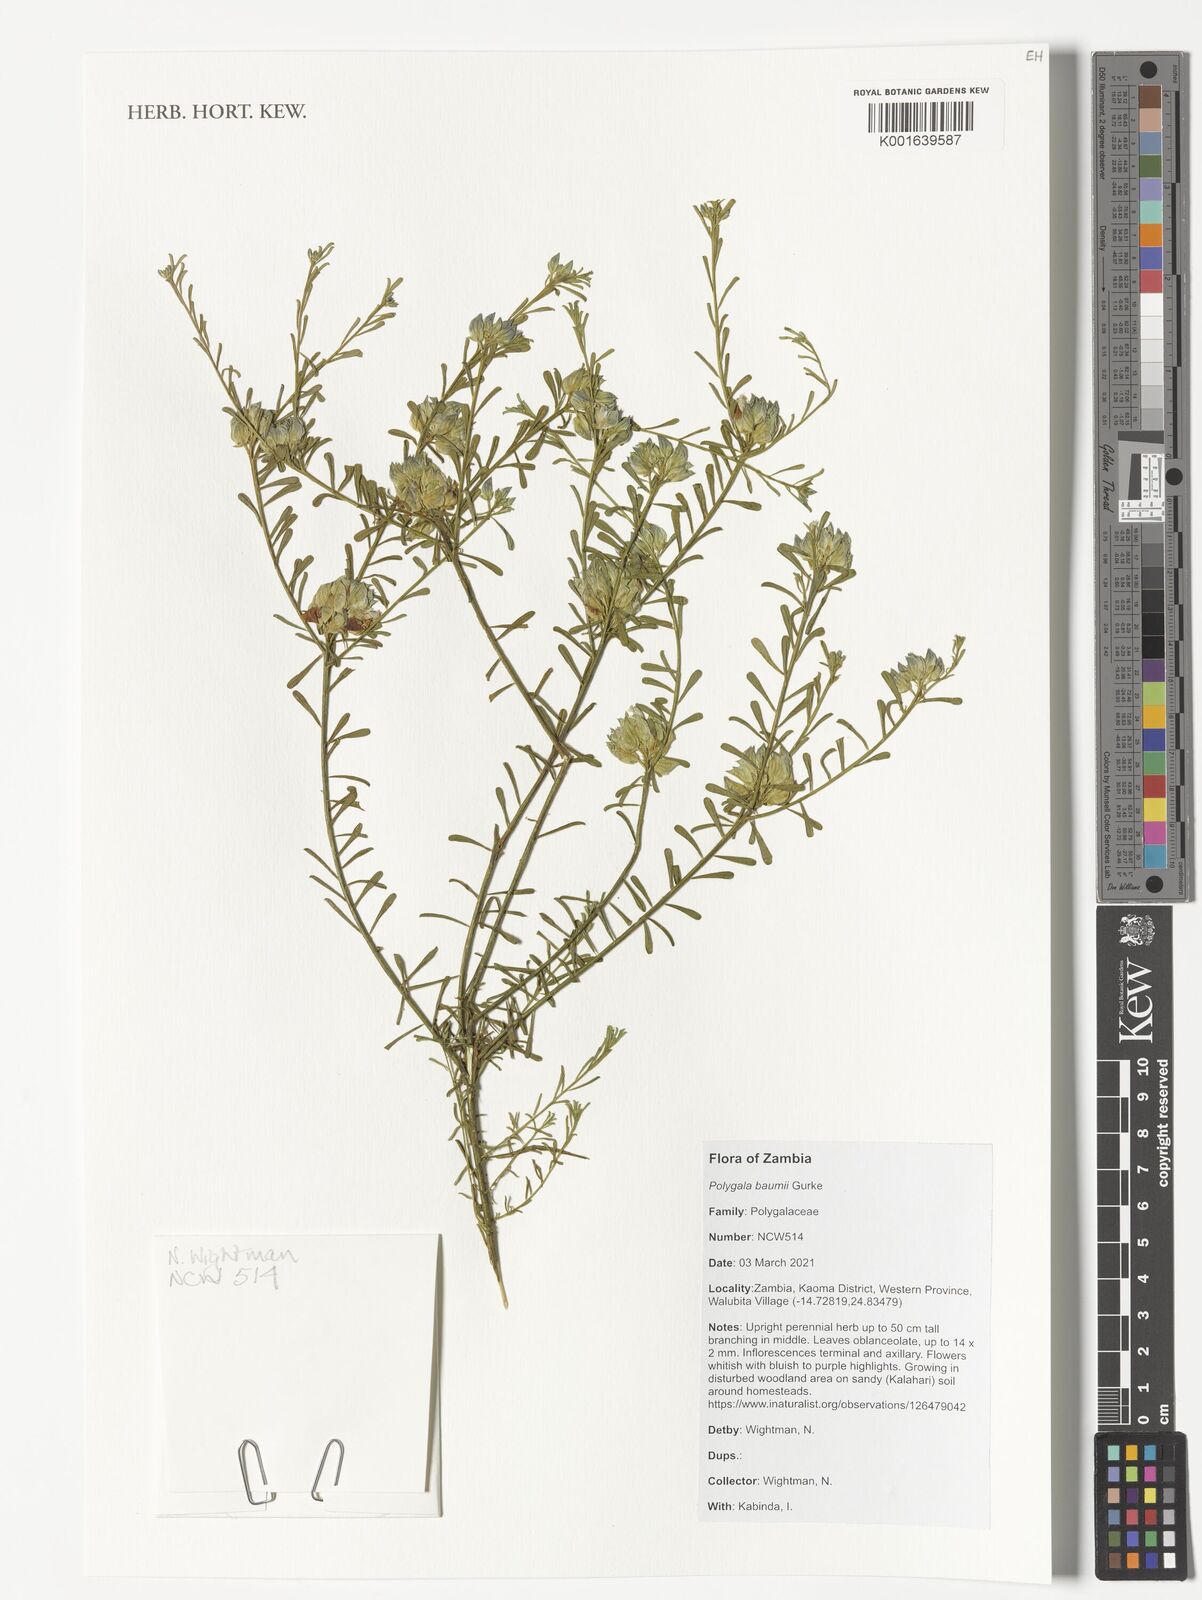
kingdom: Plantae
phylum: Tracheophyta
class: Magnoliopsida
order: Fabales
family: Polygalaceae
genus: Polygala
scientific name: Polygala baumii
